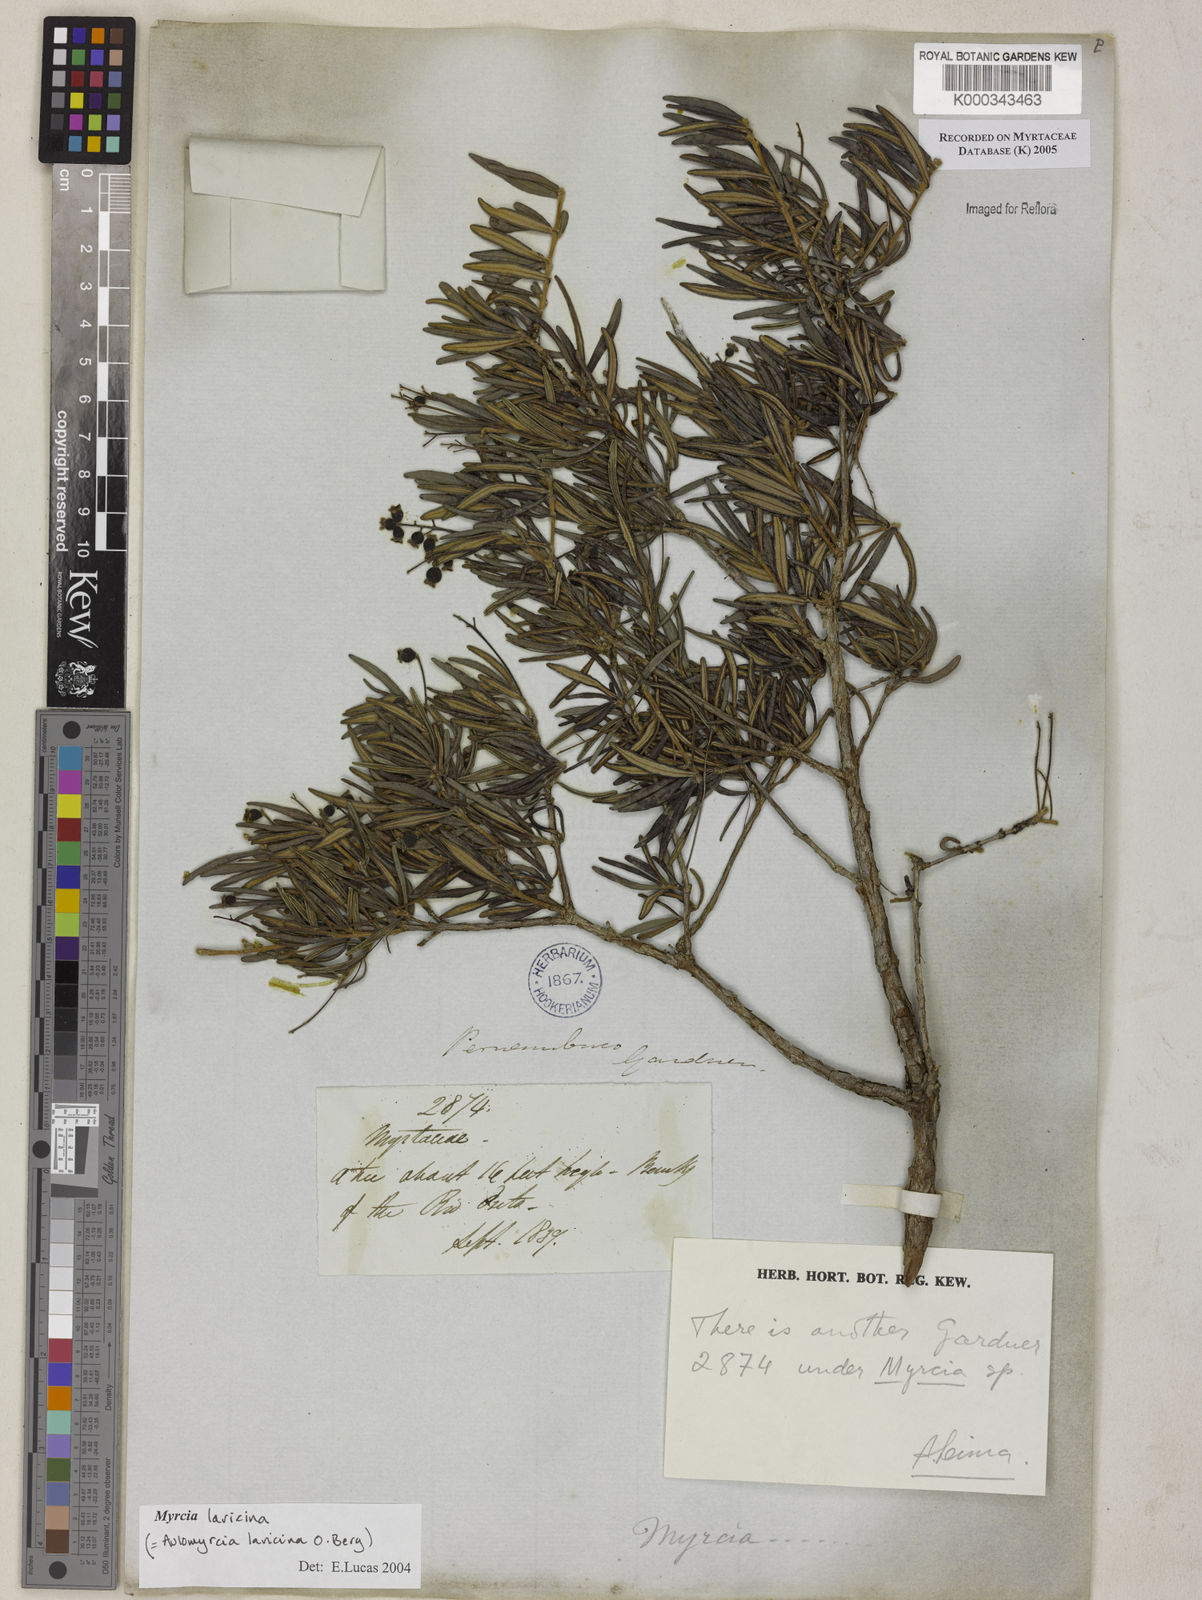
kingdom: Plantae
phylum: Tracheophyta
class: Magnoliopsida
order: Myrtales
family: Myrtaceae
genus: Myrcia
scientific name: Myrcia laricina
